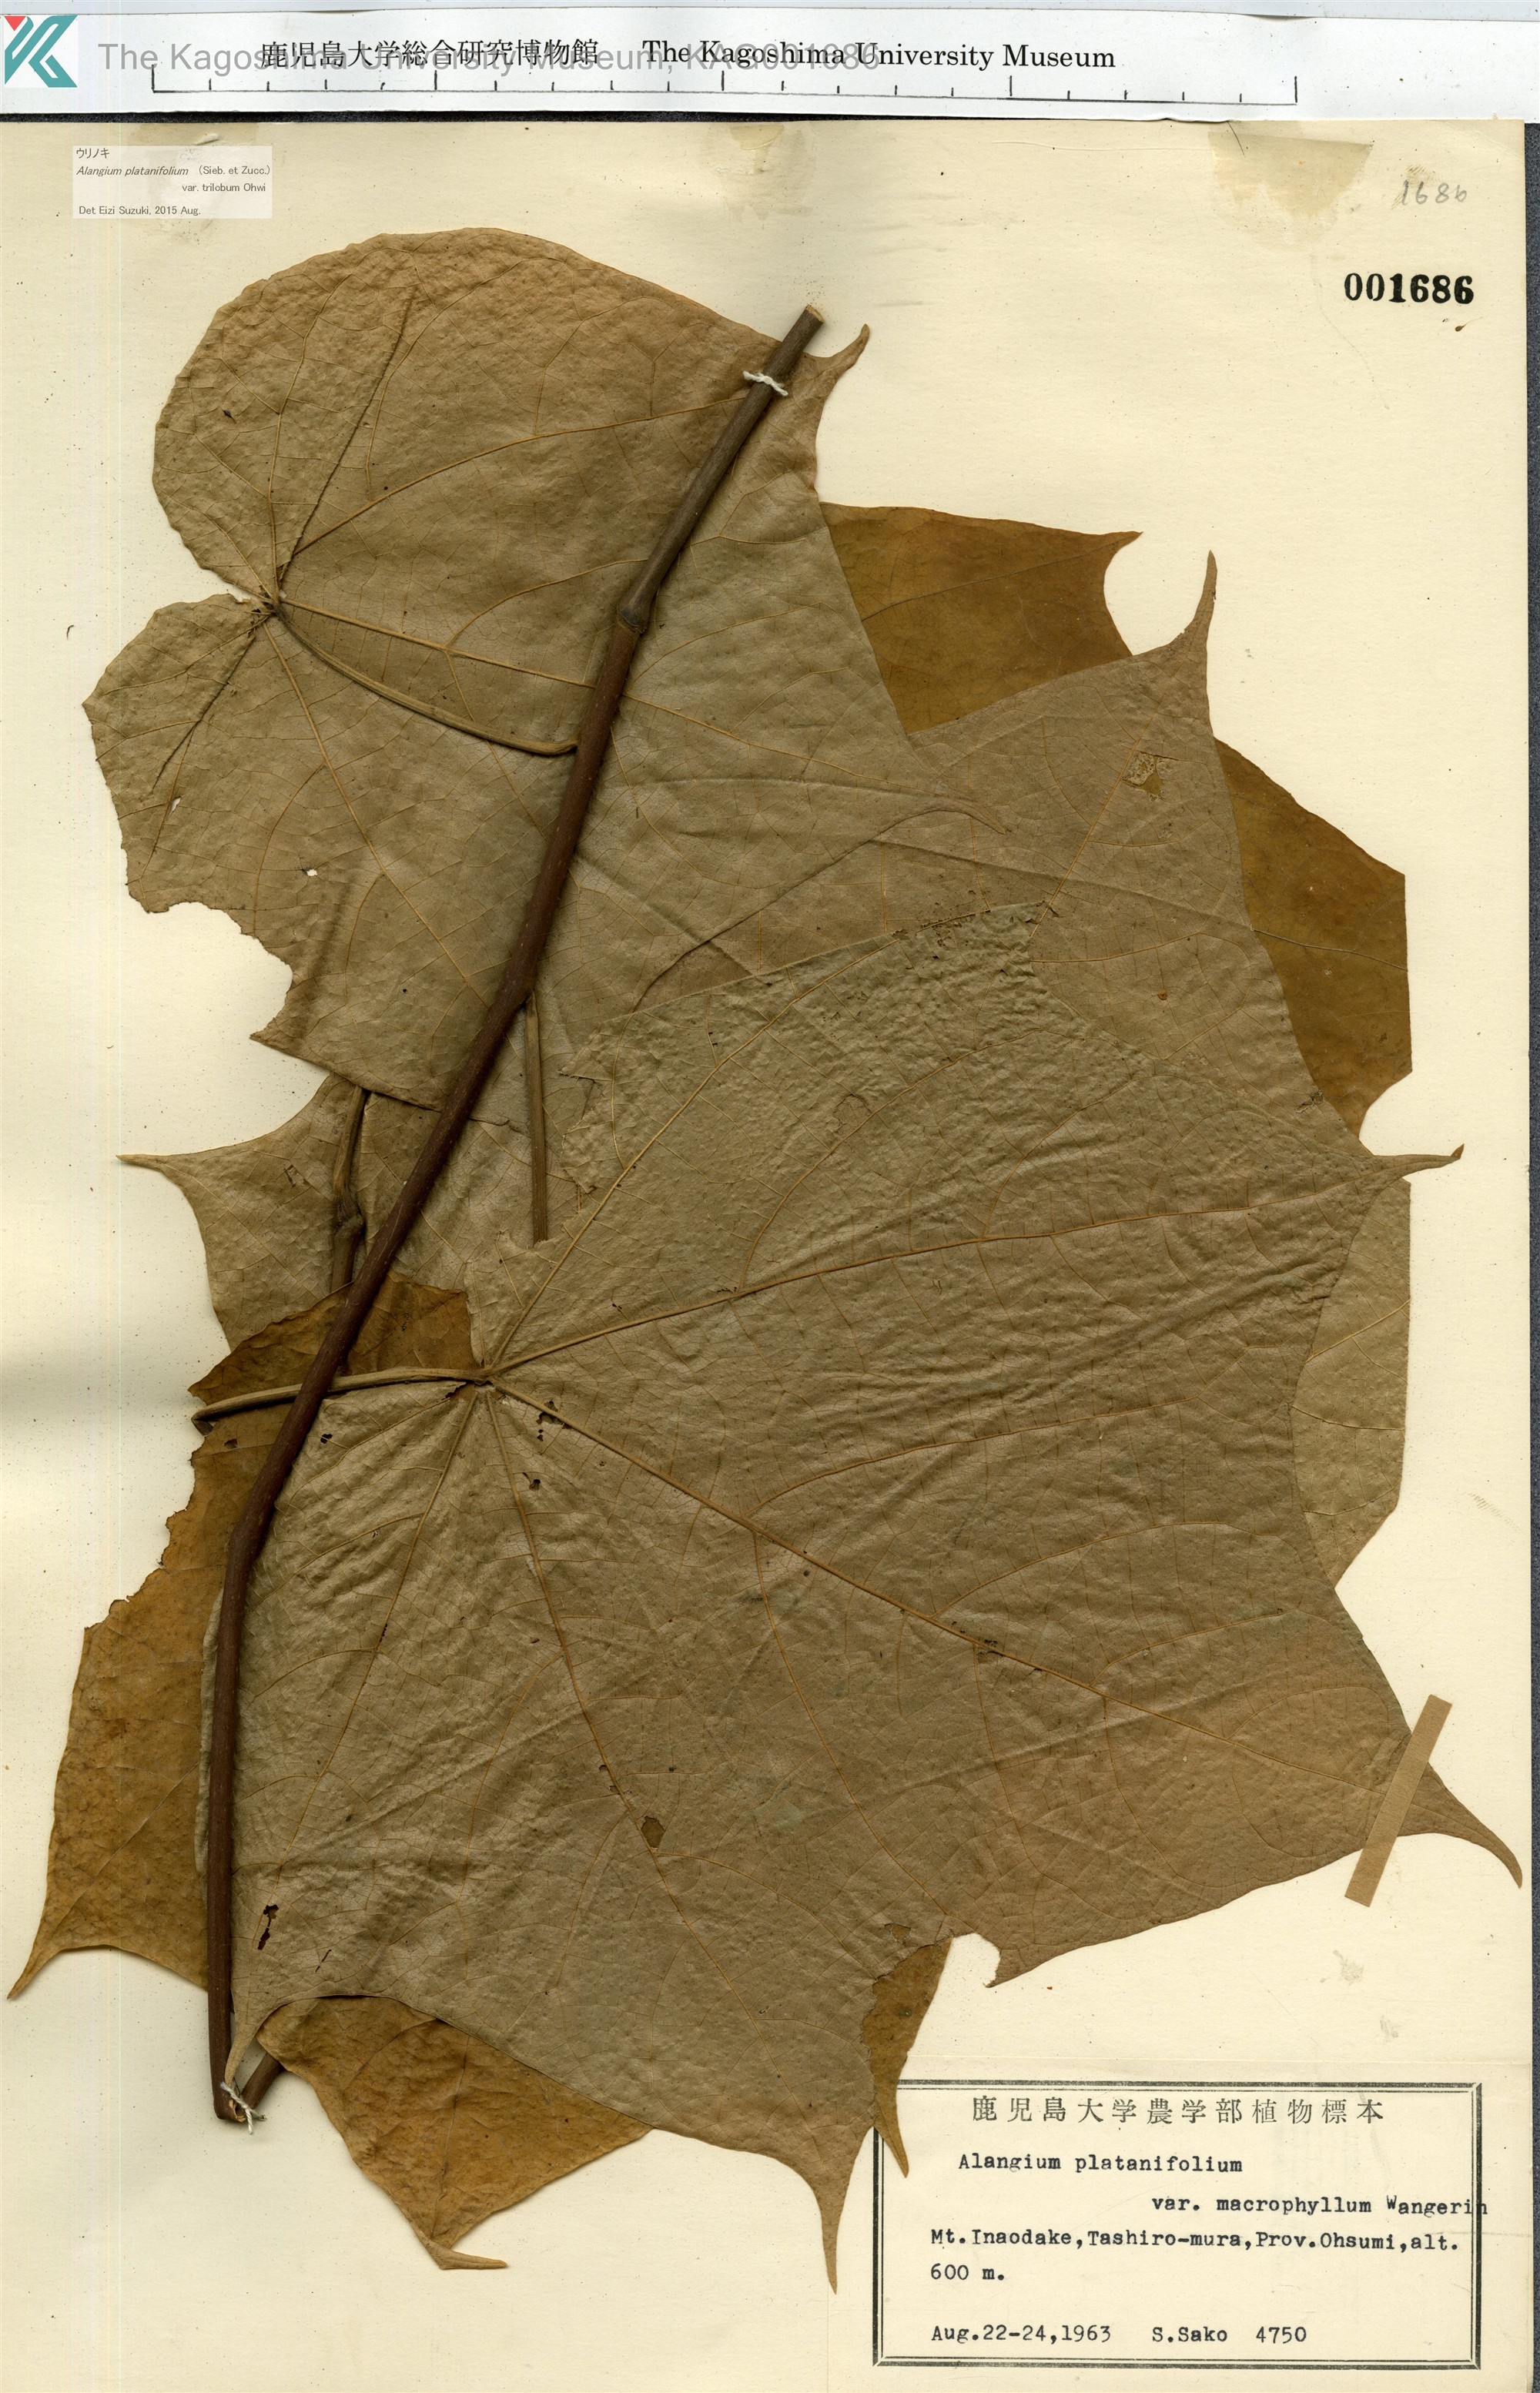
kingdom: Plantae
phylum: Tracheophyta
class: Magnoliopsida
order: Cornales
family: Cornaceae
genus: Alangium
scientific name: Alangium platanifolium
